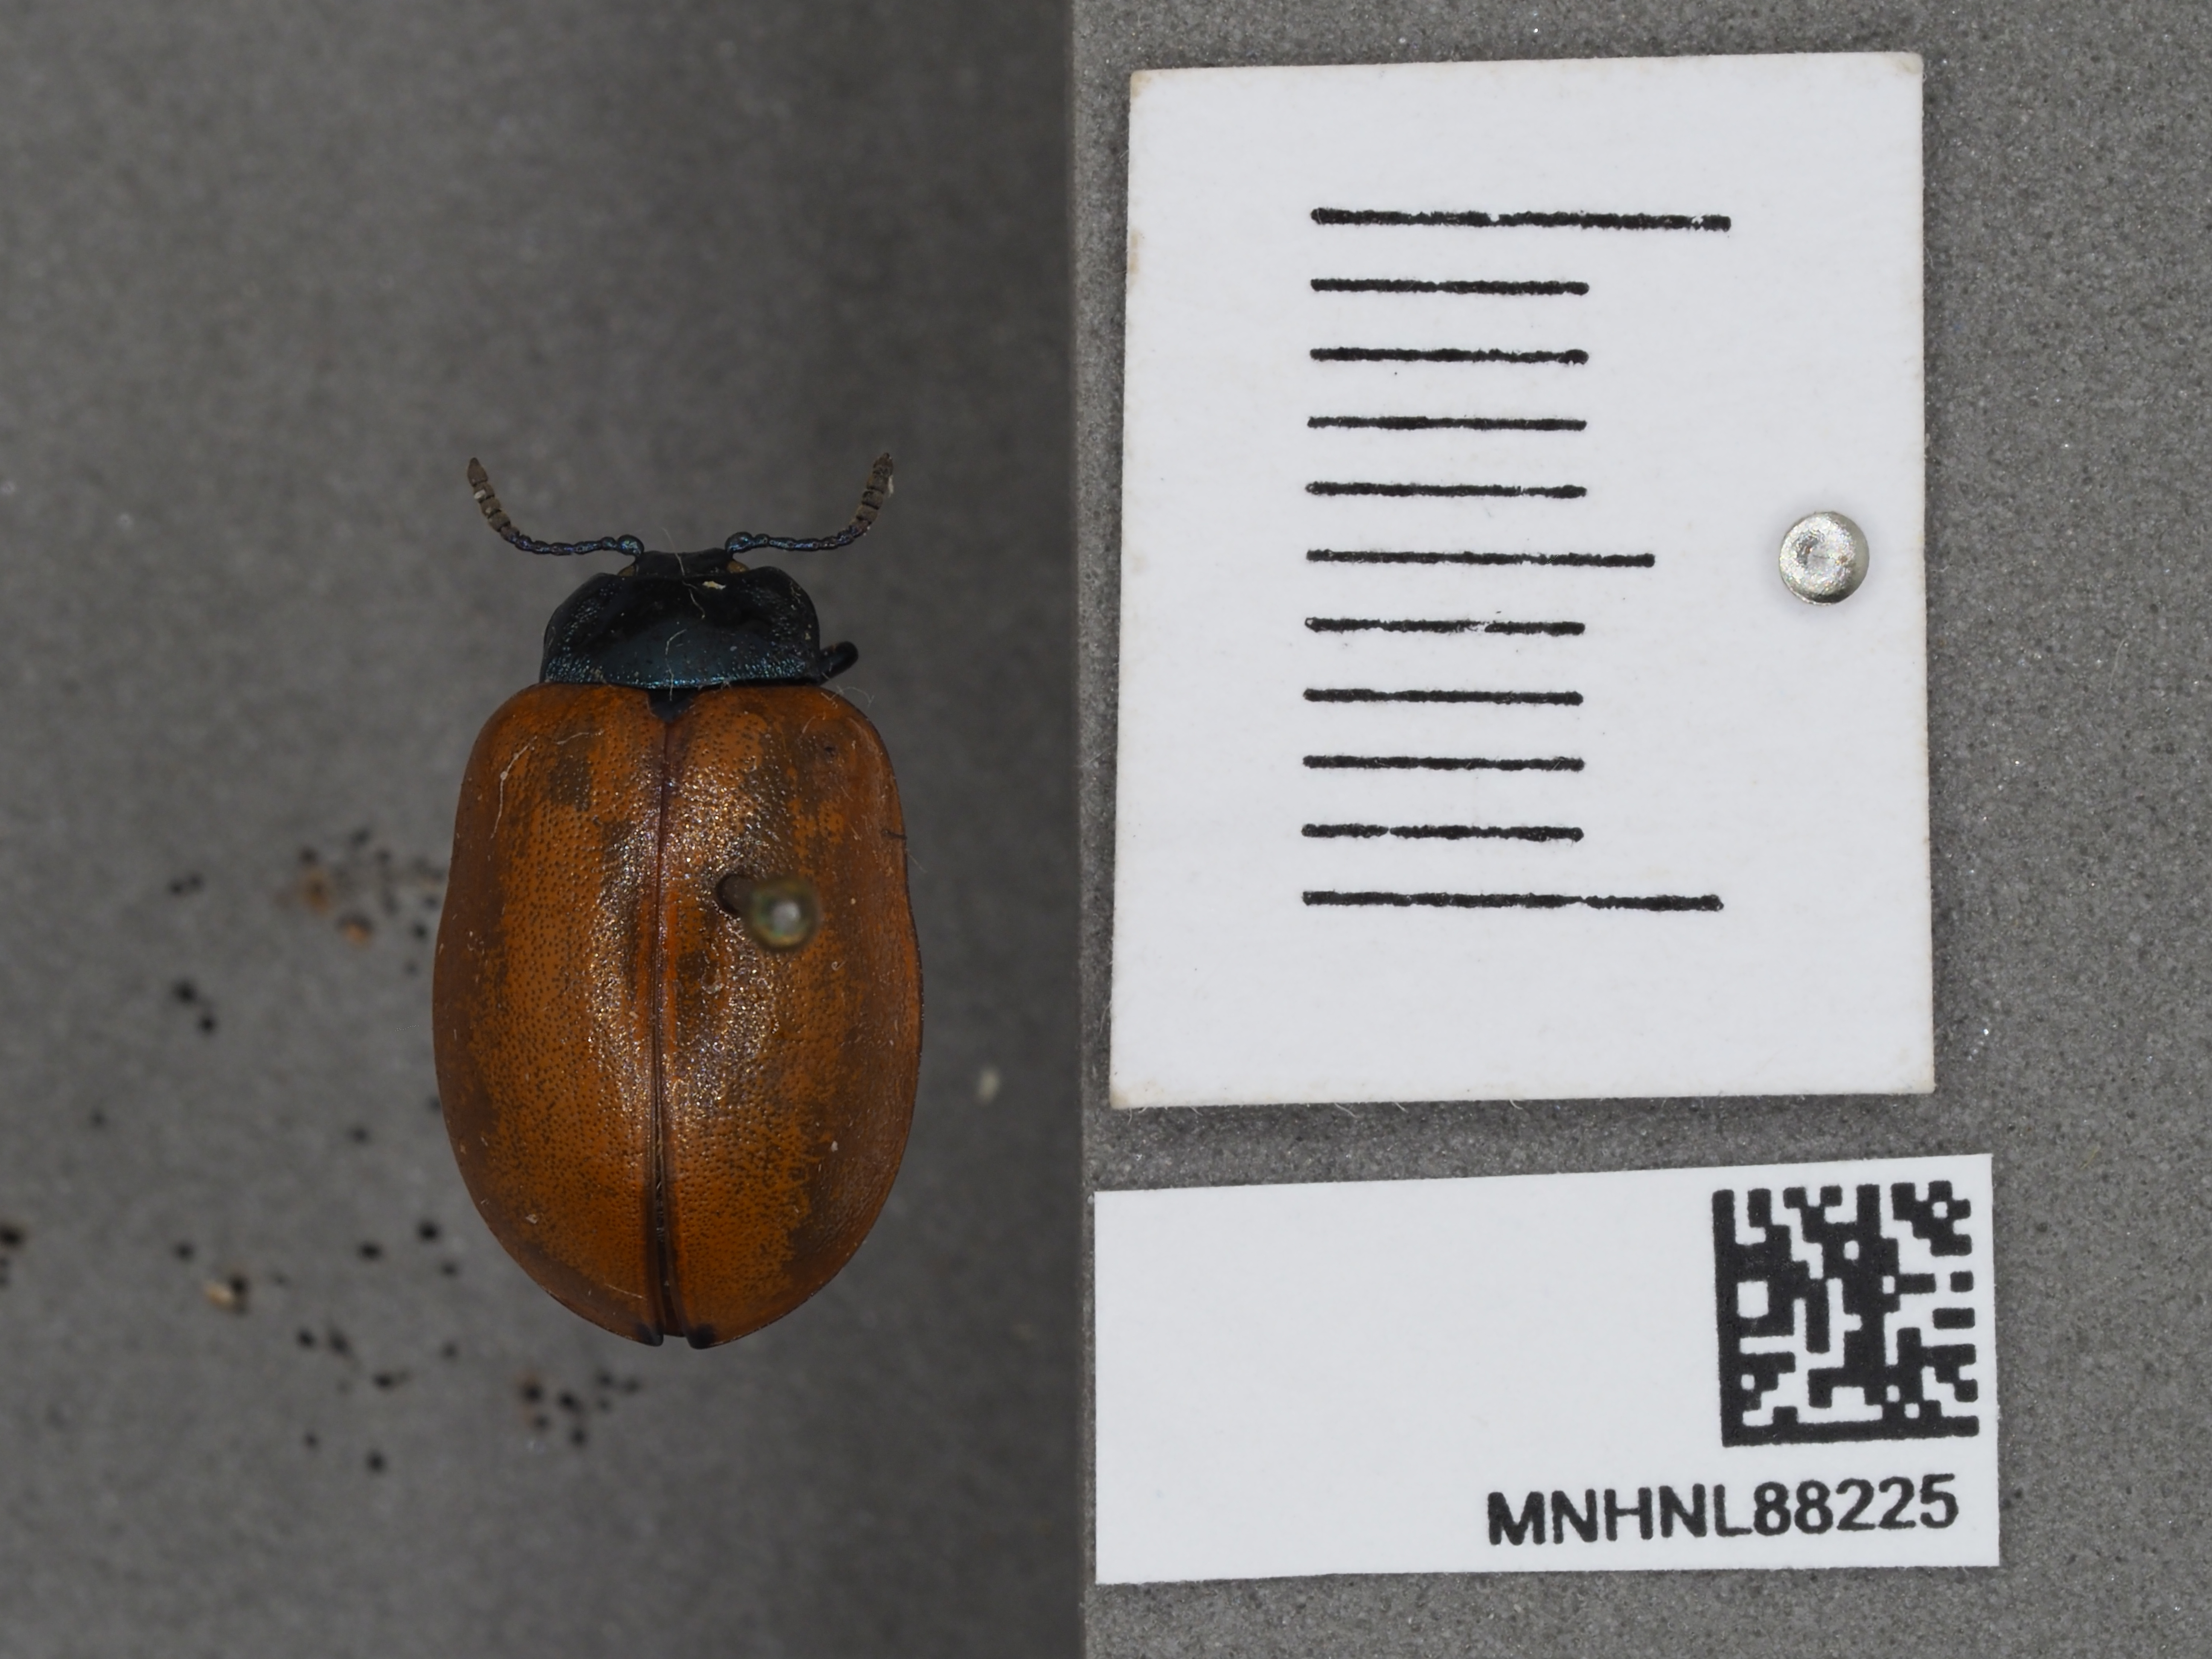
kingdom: Animalia
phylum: Arthropoda
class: Insecta
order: Coleoptera
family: Chrysomelidae
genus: Chrysomela
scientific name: Chrysomela populi
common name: Red poplar leaf beetle
